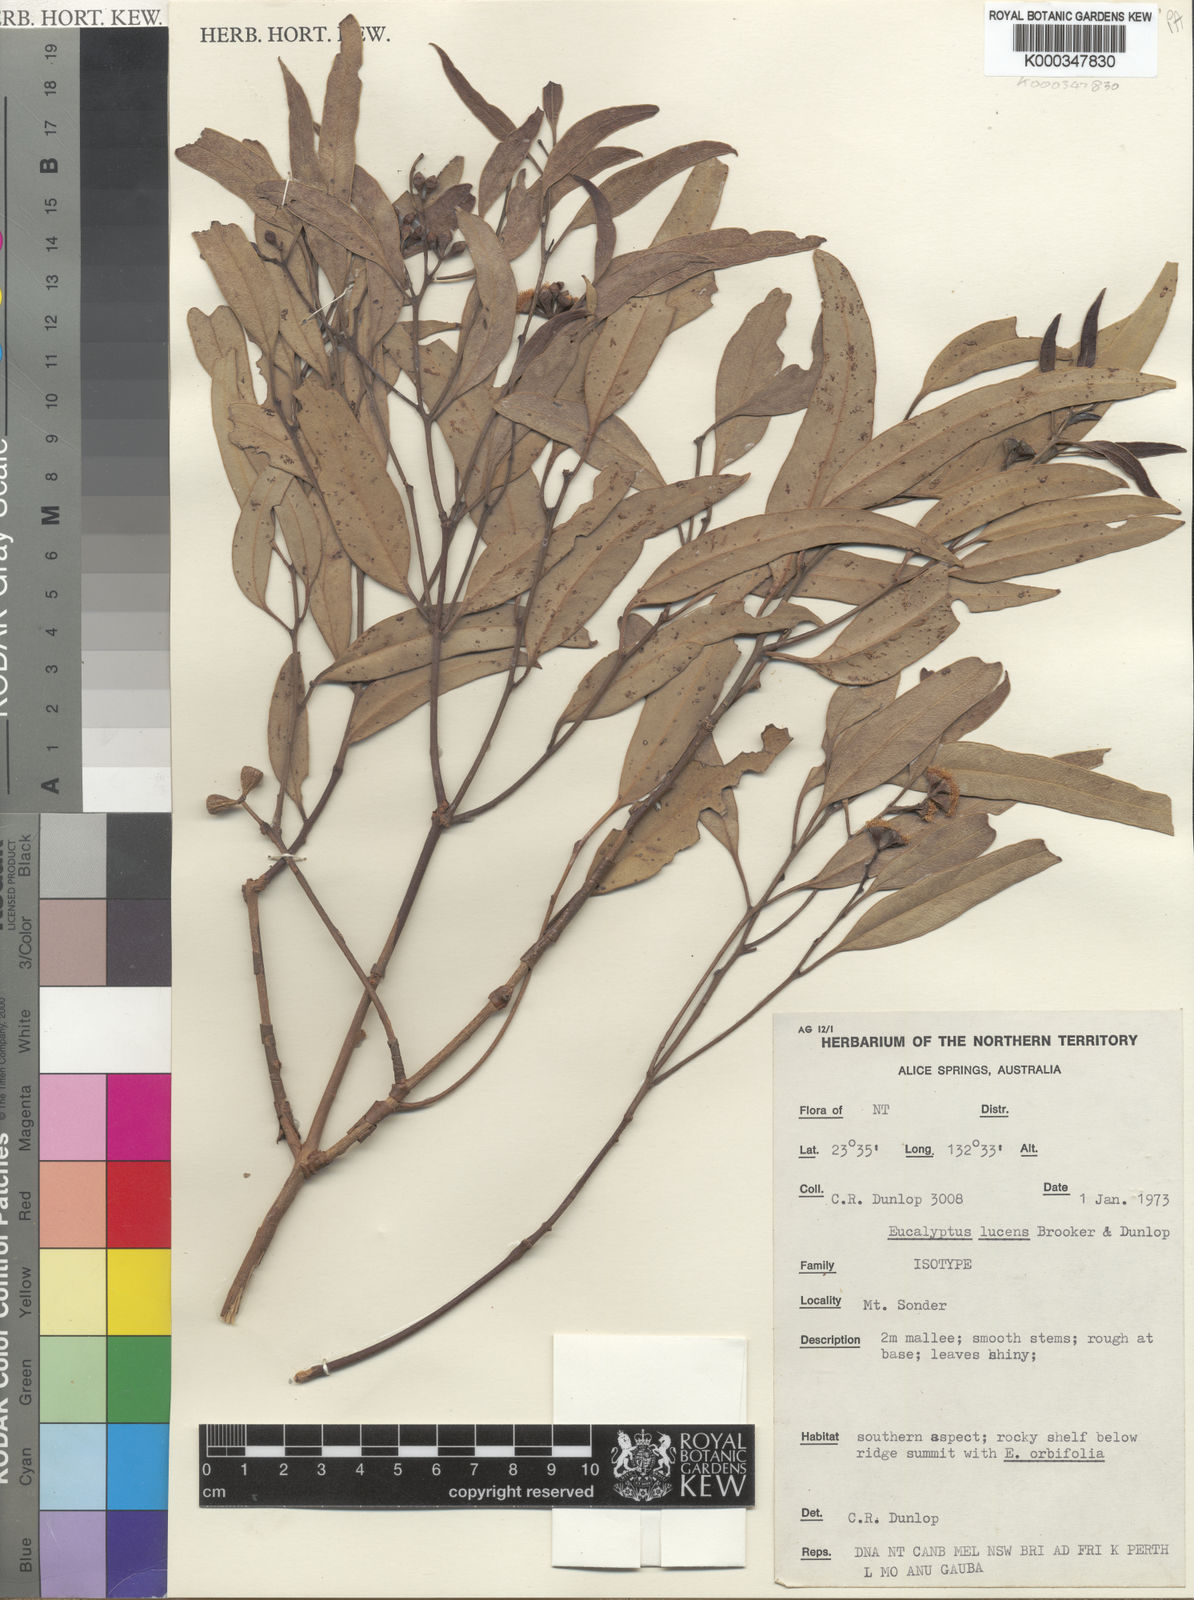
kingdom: Plantae
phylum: Tracheophyta
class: Magnoliopsida
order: Myrtales
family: Myrtaceae
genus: Eucalyptus
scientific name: Eucalyptus lucens
